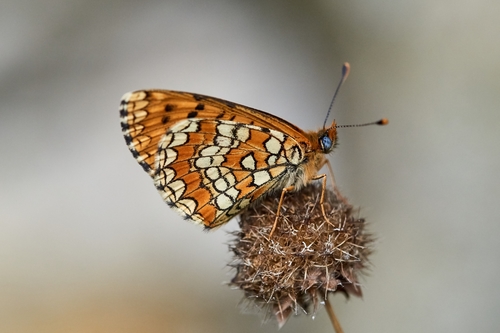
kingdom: Animalia
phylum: Arthropoda
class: Insecta
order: Lepidoptera
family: Nymphalidae
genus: Melitaea
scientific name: Melitaea deione
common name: Provençal fritillary
